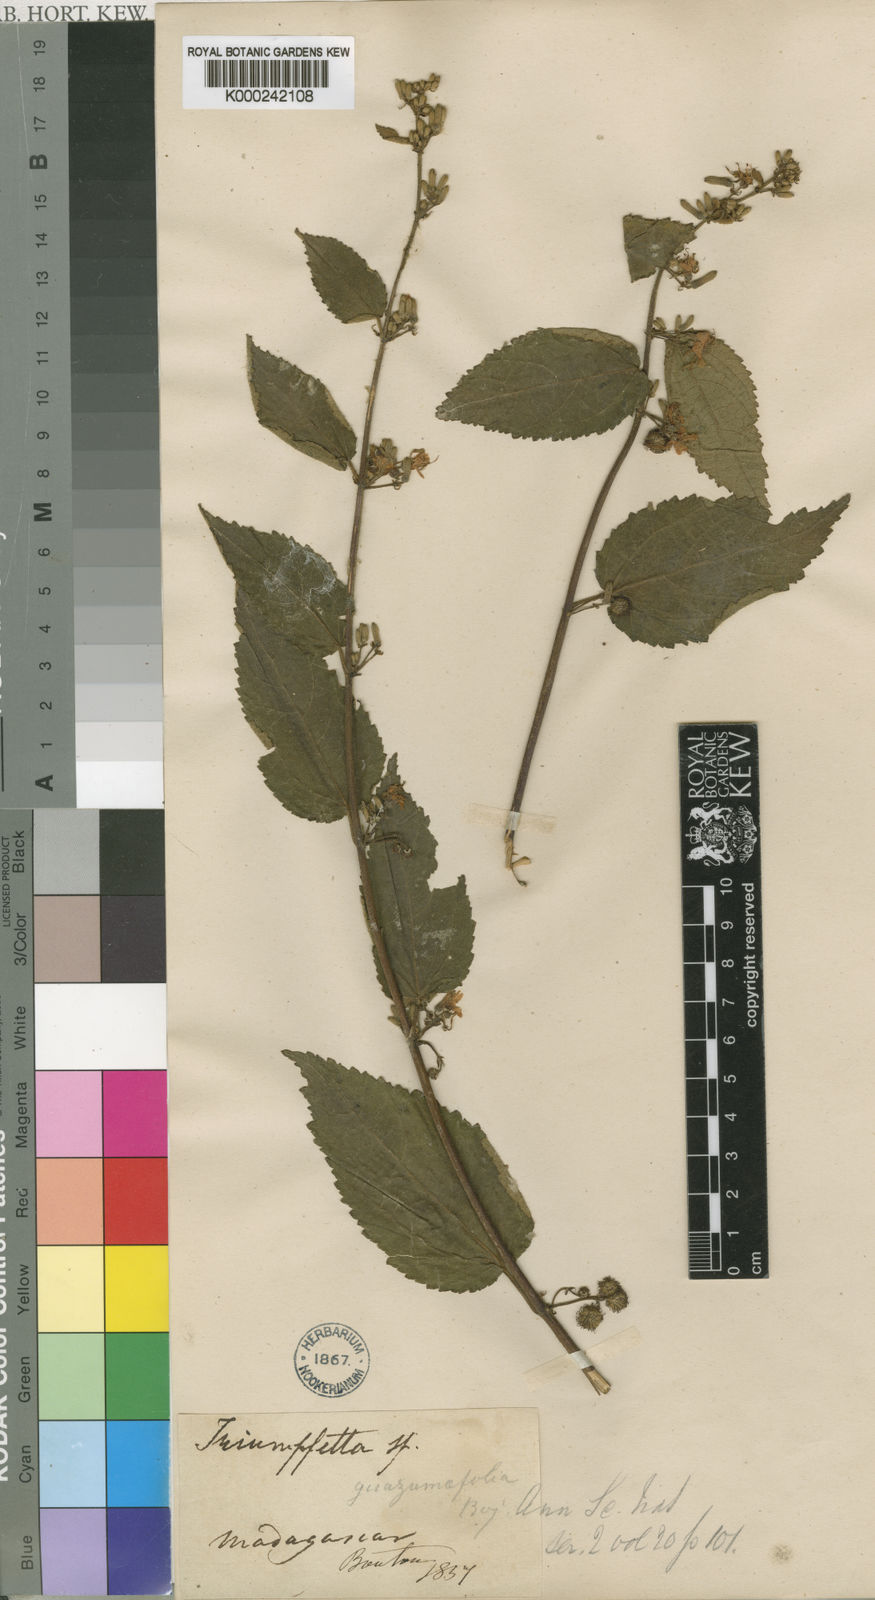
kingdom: Plantae
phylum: Tracheophyta
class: Magnoliopsida
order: Malvales
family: Malvaceae
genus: Triumfetta
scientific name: Triumfetta pilosa
